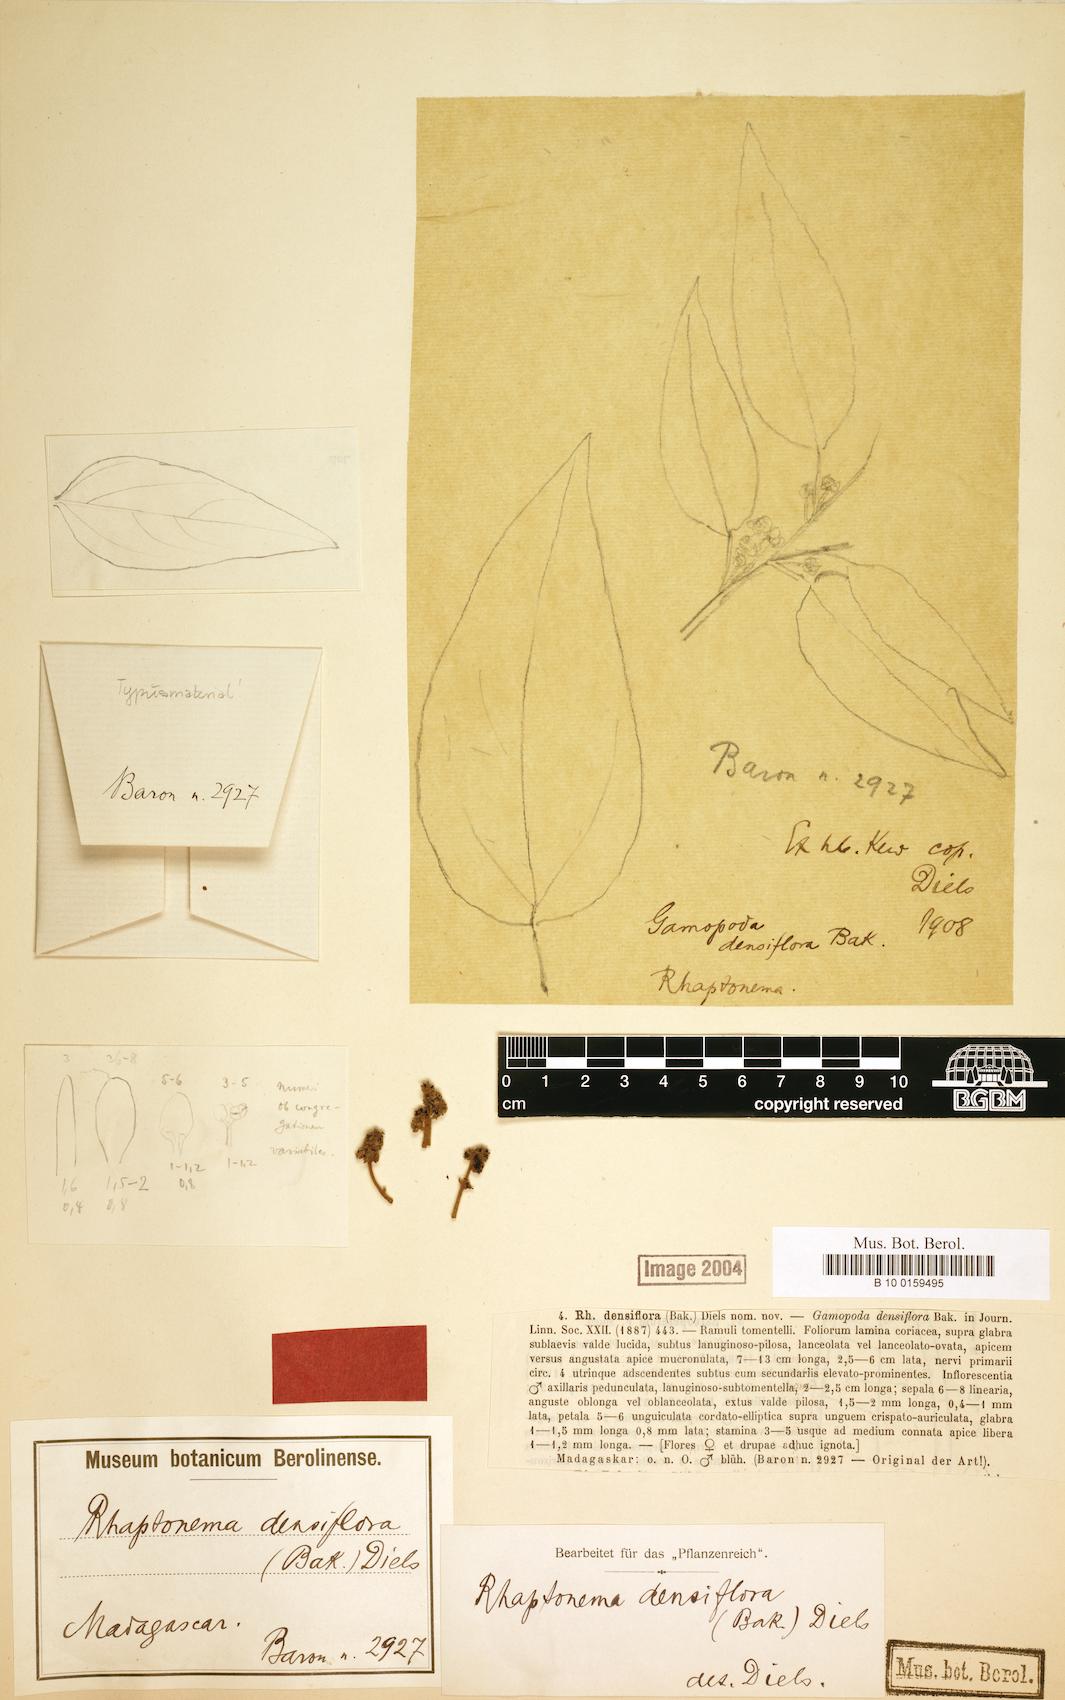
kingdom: Plantae
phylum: Tracheophyta
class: Magnoliopsida
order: Ranunculales
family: Menispermaceae
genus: Rhaptonema
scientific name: Rhaptonema densiflora
